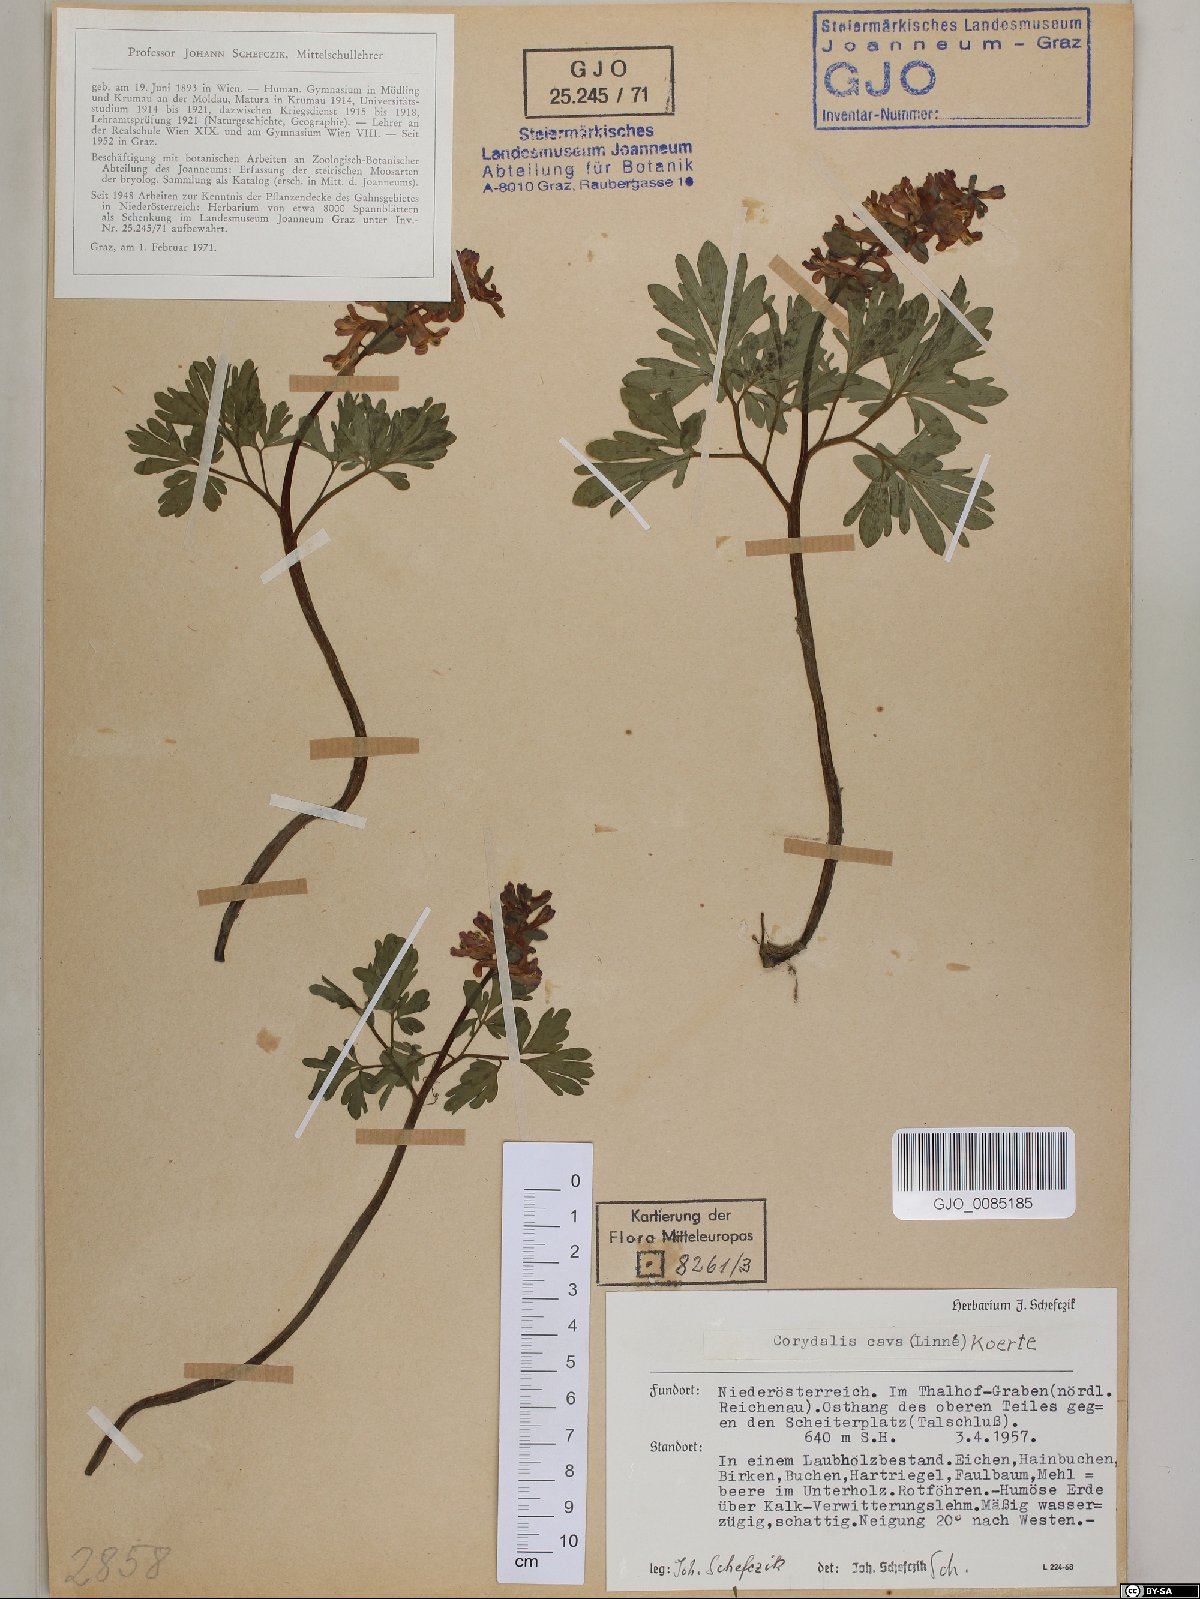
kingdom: Plantae
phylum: Tracheophyta
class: Magnoliopsida
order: Ranunculales
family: Papaveraceae
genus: Corydalis
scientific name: Corydalis cava
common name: Hollowroot
